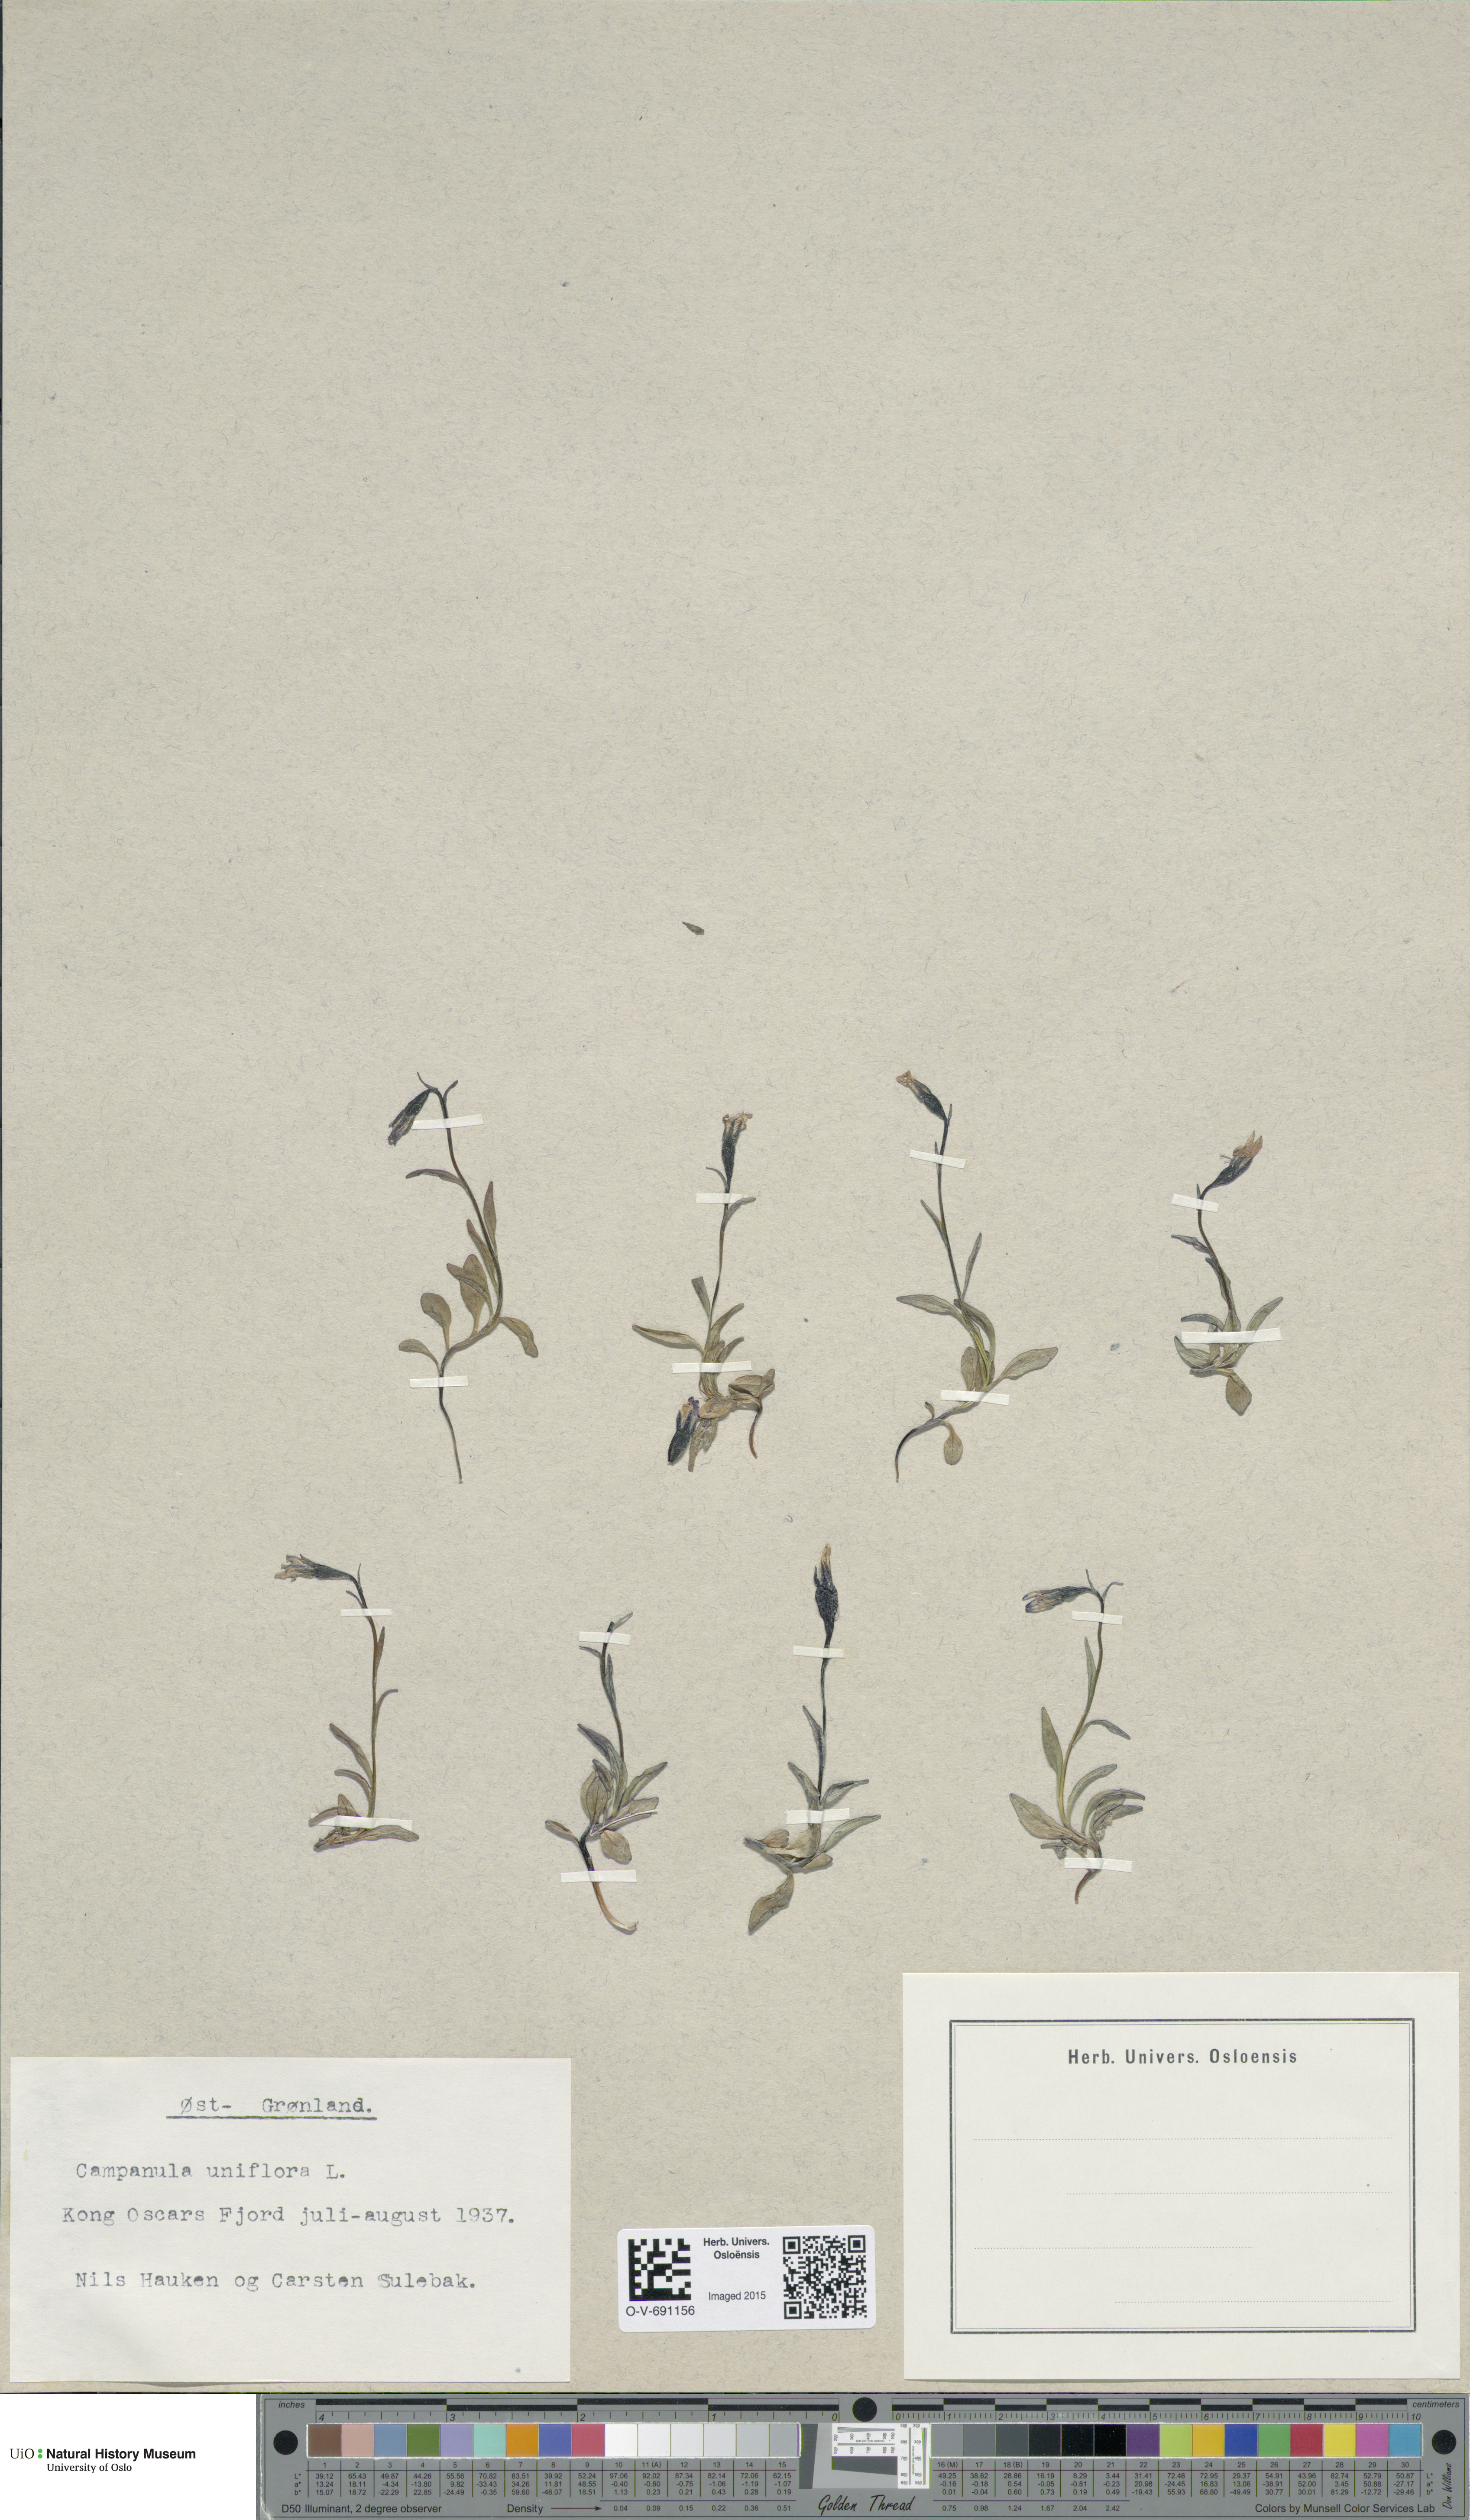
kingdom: Plantae
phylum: Tracheophyta
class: Magnoliopsida
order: Asterales
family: Campanulaceae
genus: Melanocalyx
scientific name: Melanocalyx uniflora
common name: Alpine harebell
